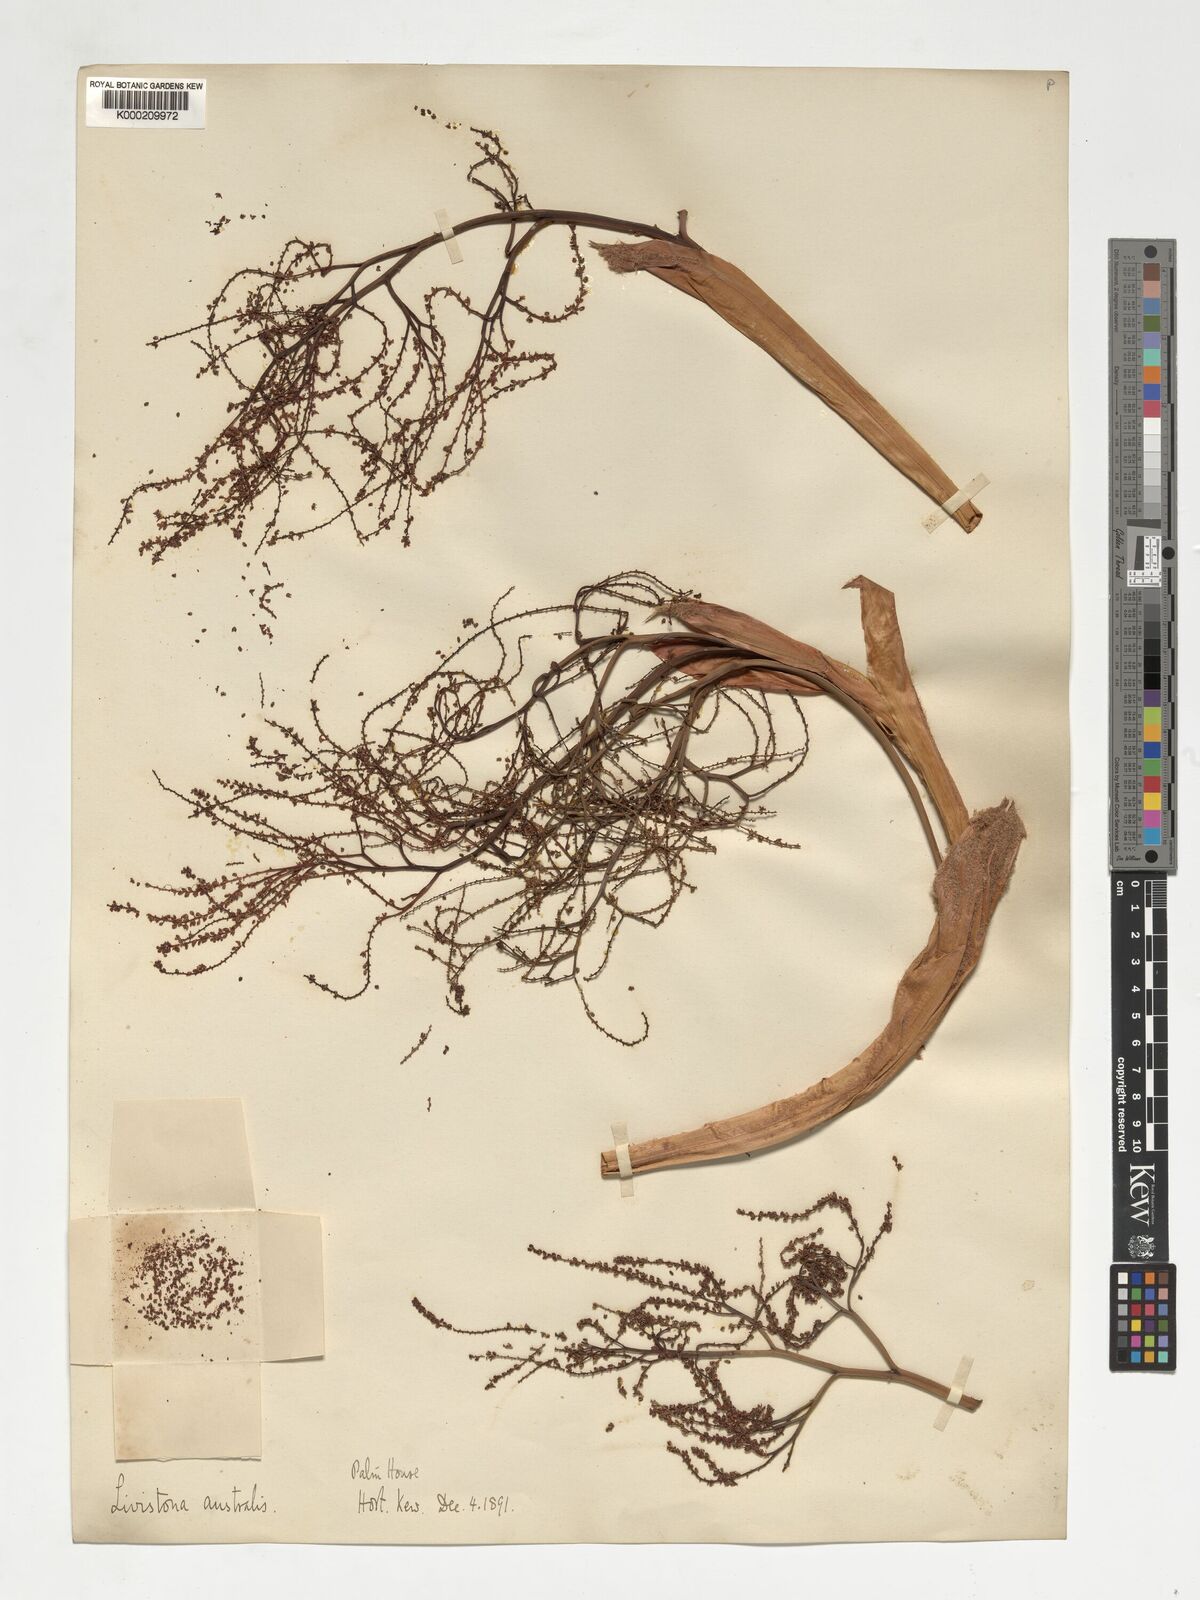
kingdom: Plantae
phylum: Tracheophyta
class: Liliopsida
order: Arecales
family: Arecaceae
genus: Livistona
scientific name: Livistona australis
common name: Cabbage fan palm
